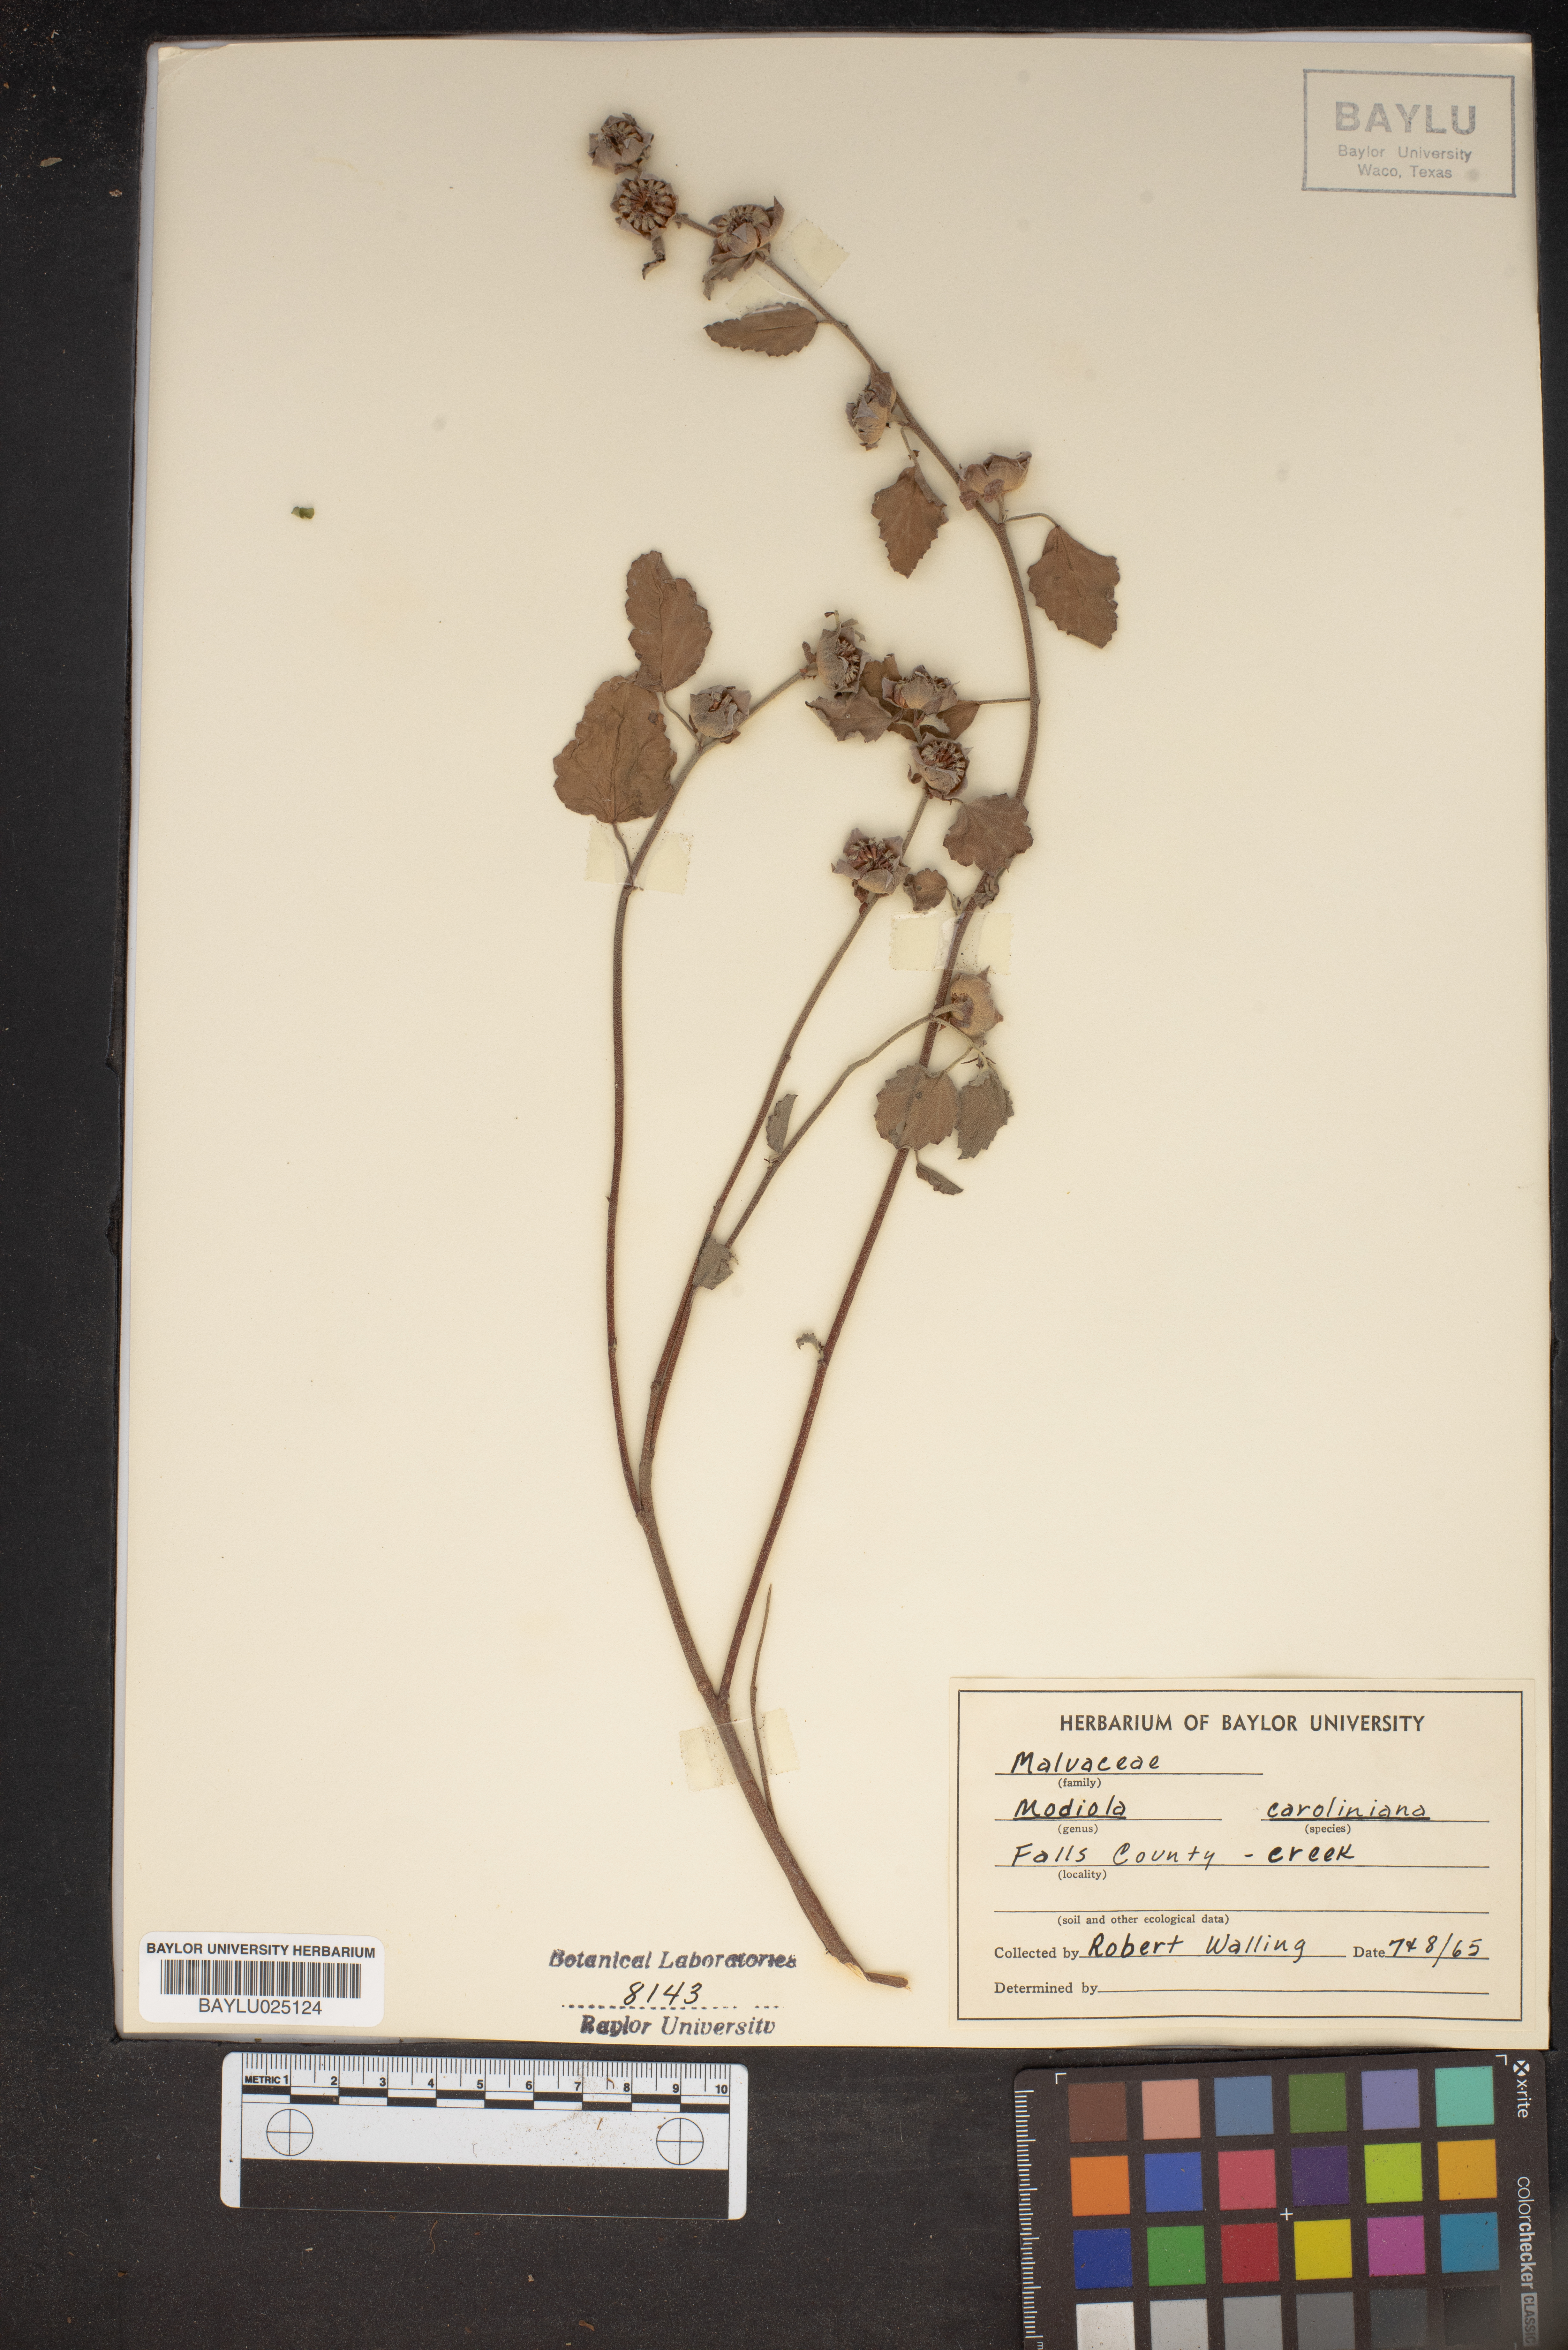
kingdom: Plantae
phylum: Tracheophyta
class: Magnoliopsida
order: Malvales
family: Malvaceae
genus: Modiola
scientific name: Modiola caroliniana
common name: Carolina bristlemallow
